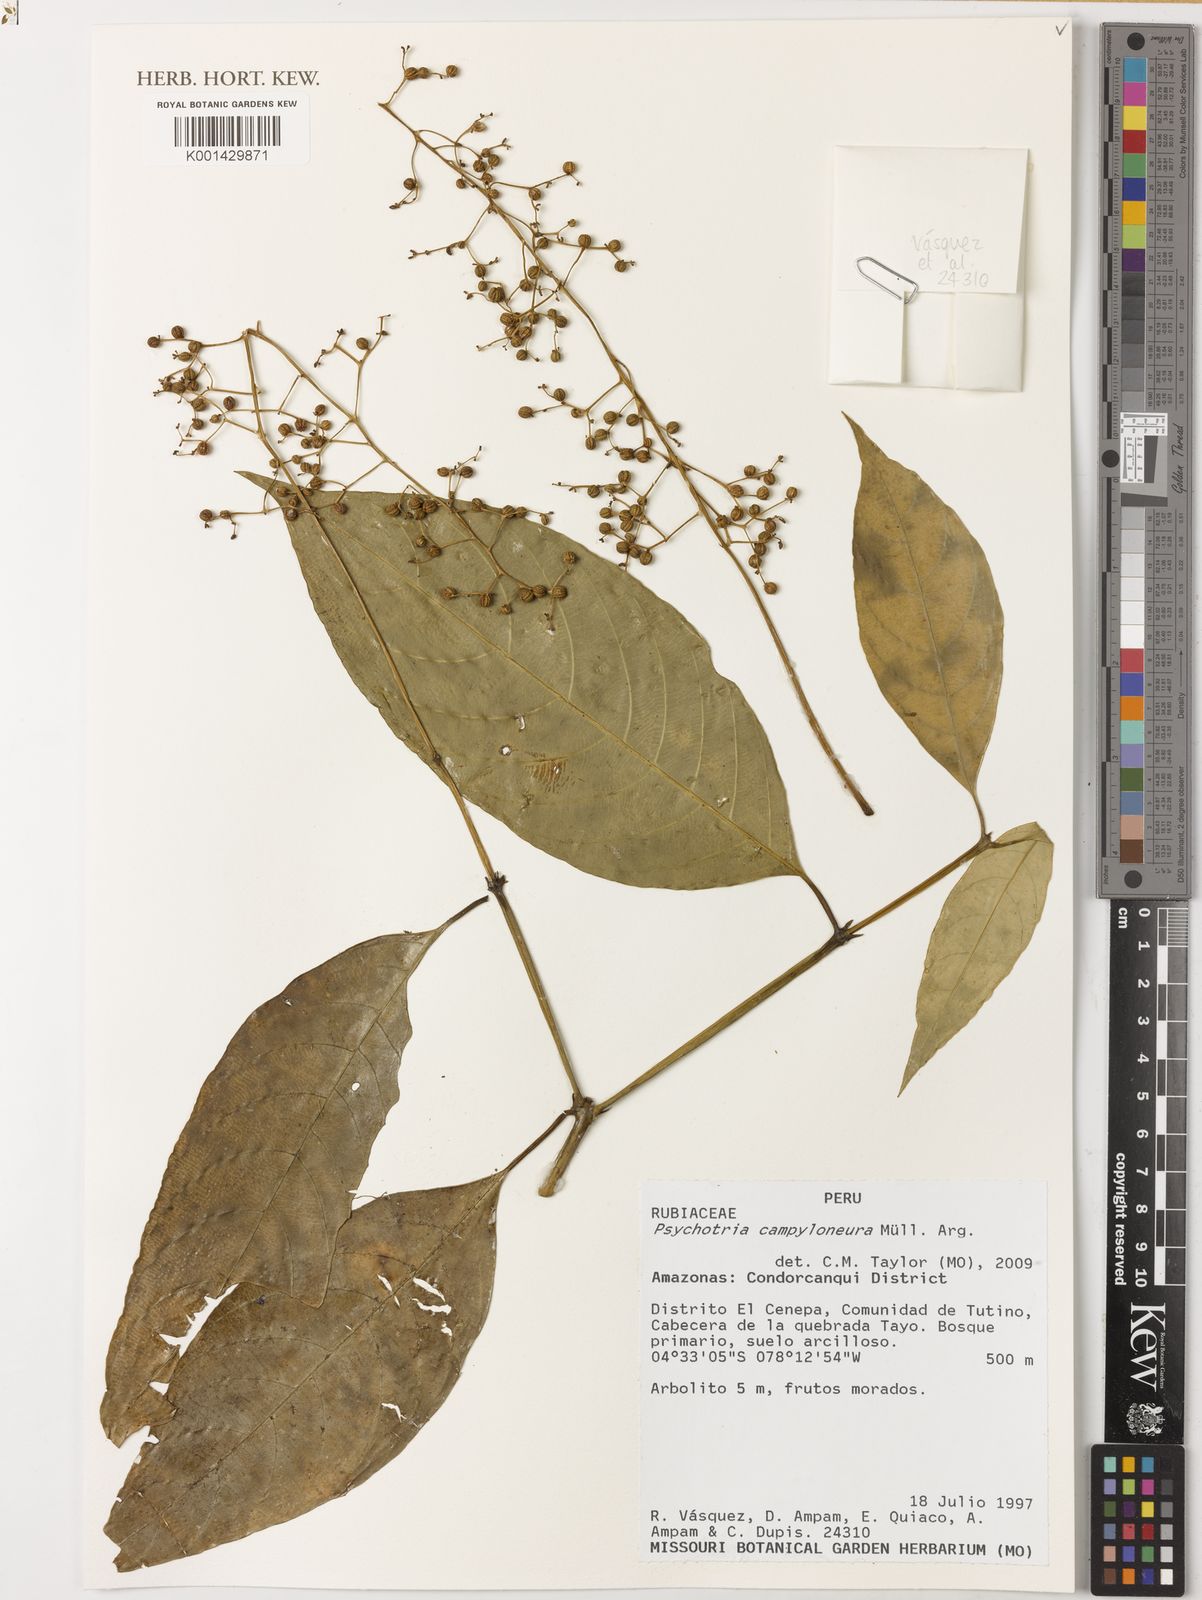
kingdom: Plantae
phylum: Tracheophyta
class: Magnoliopsida
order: Gentianales
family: Rubiaceae
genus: Psychotria
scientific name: Psychotria
